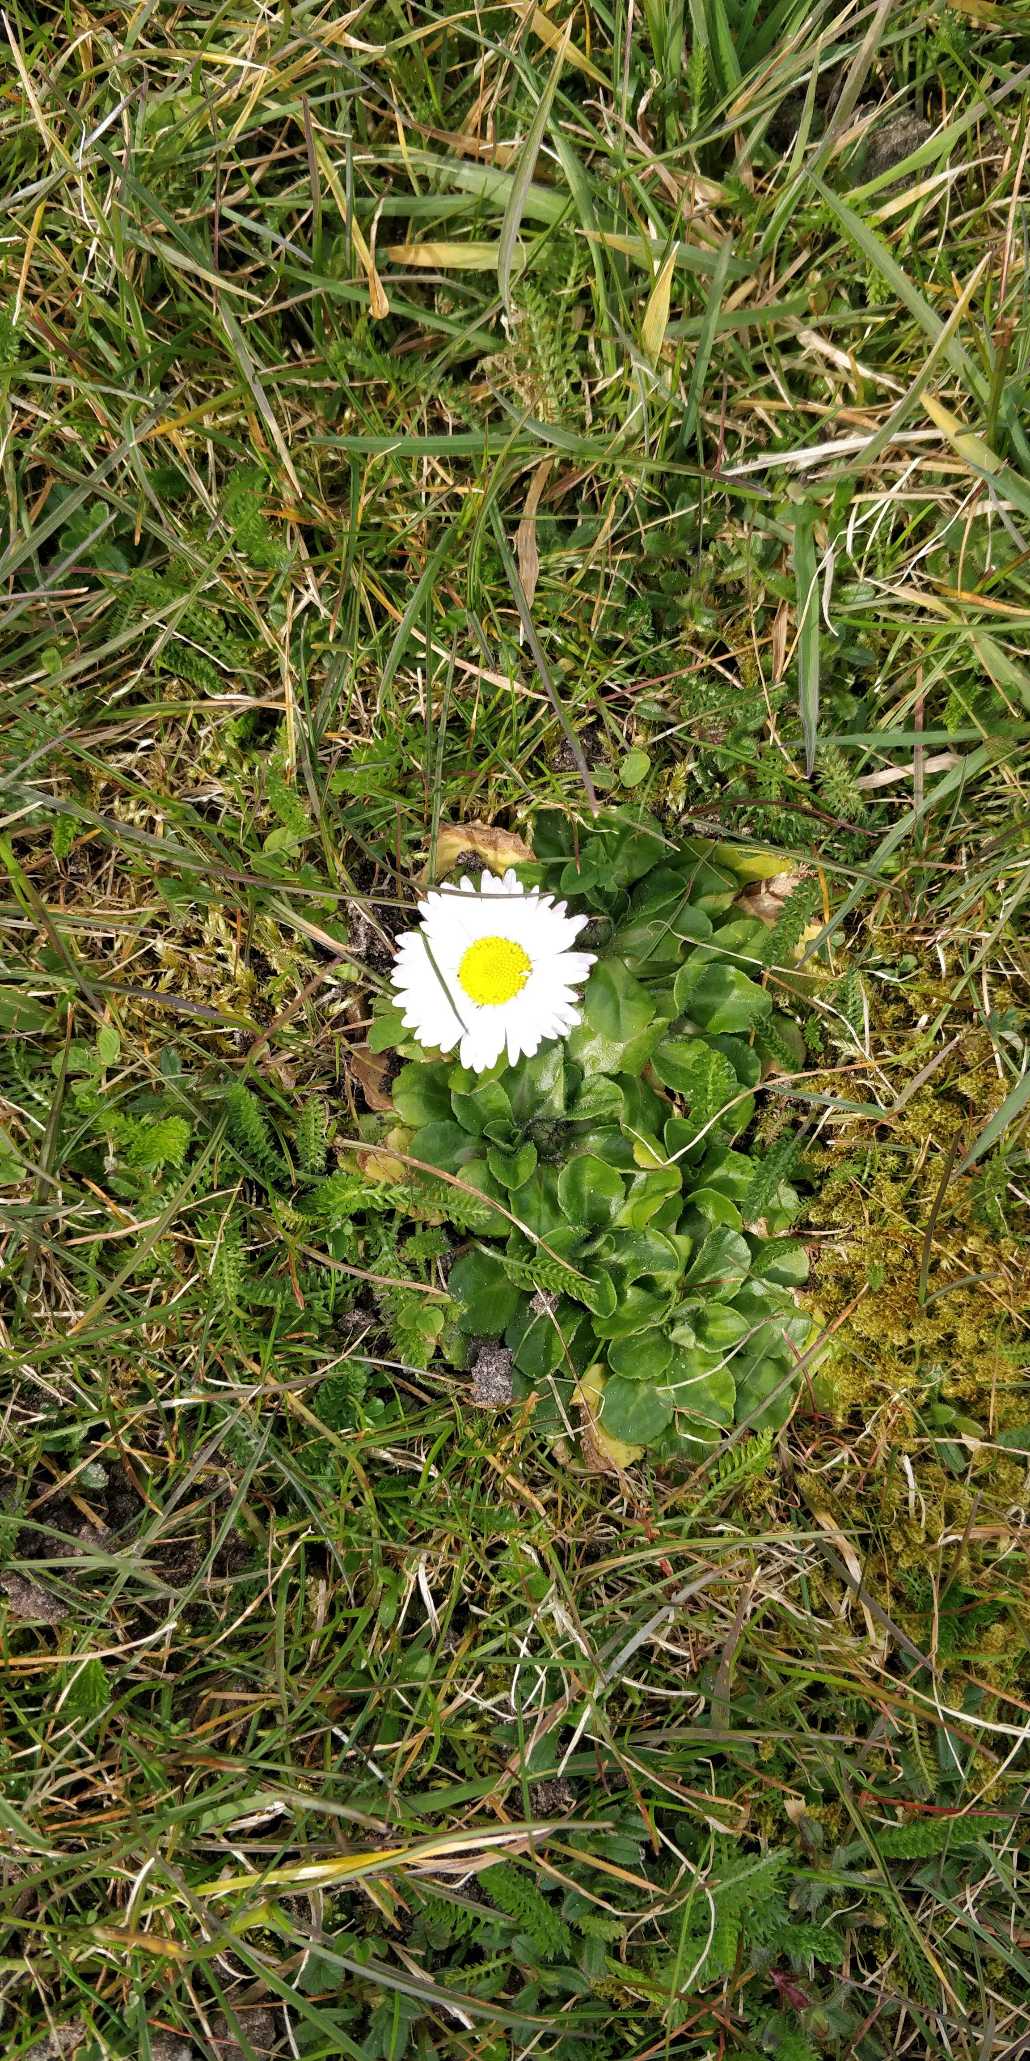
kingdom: Plantae
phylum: Tracheophyta
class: Magnoliopsida
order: Asterales
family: Asteraceae
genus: Bellis
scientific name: Bellis perennis
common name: Tusindfryd
